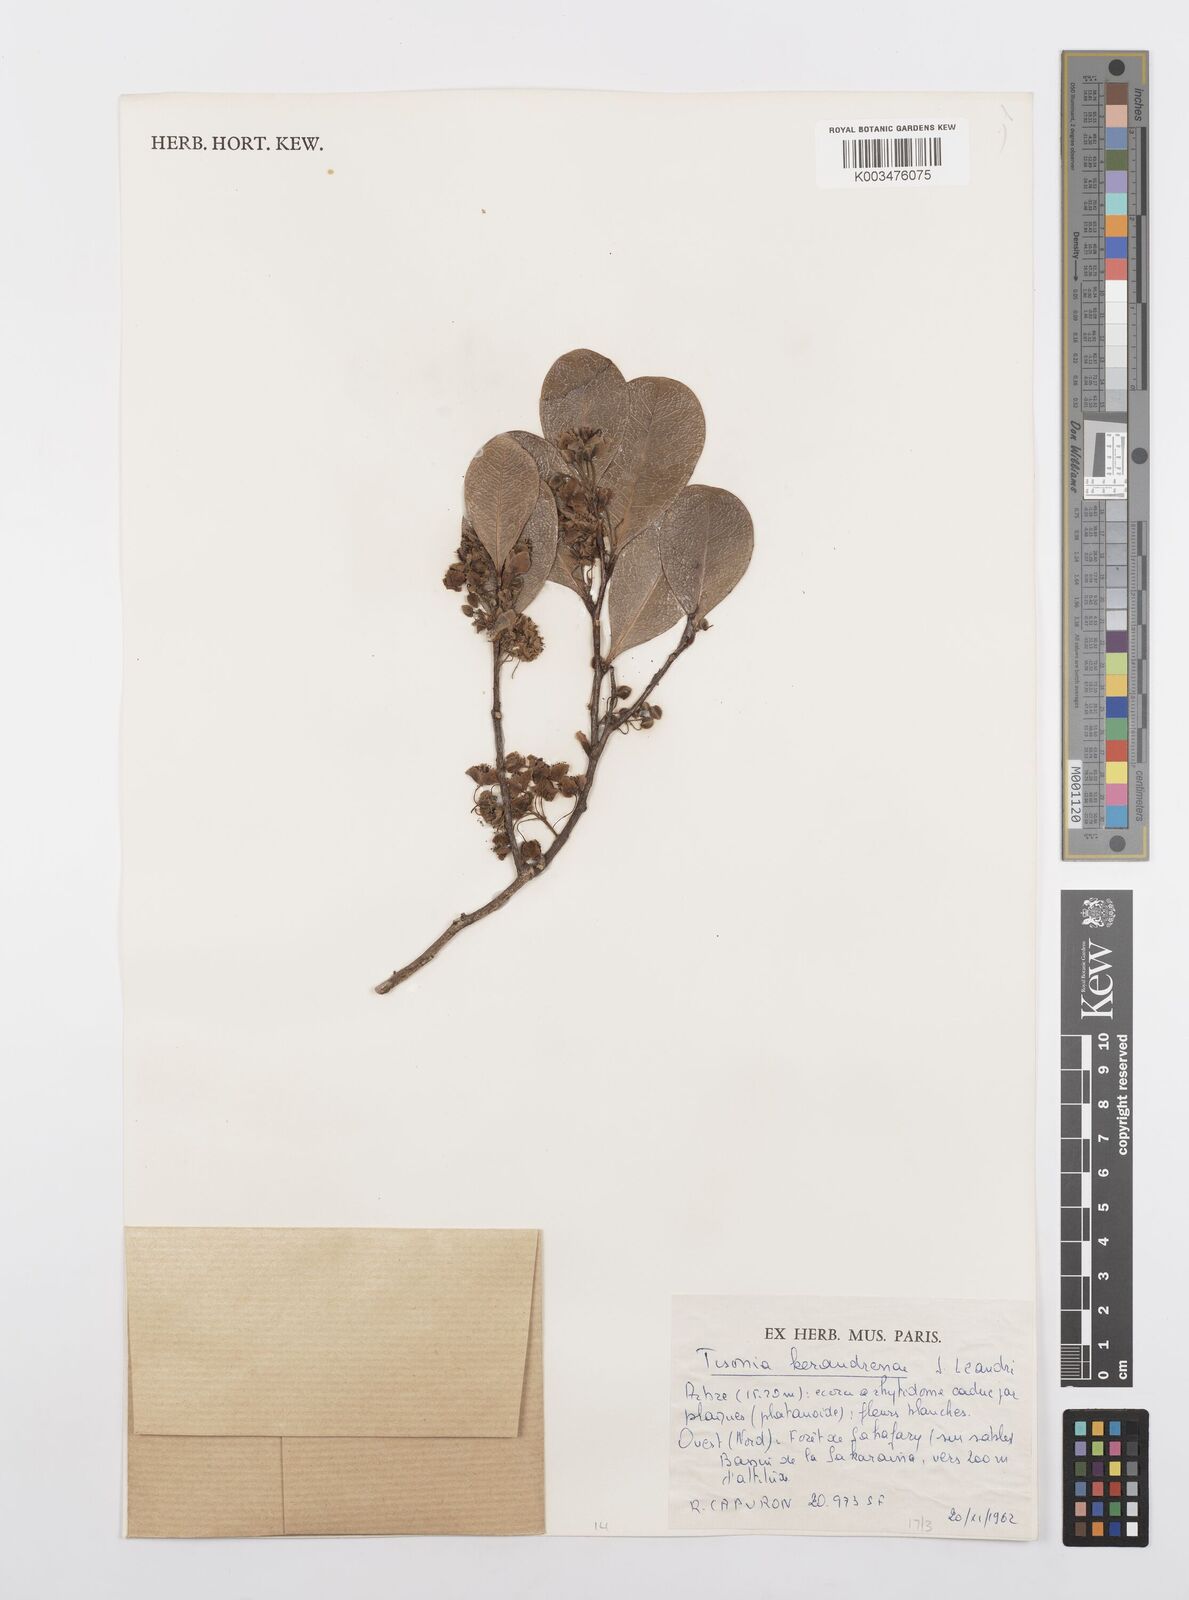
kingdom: Plantae
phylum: Tracheophyta
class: Magnoliopsida
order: Malpighiales
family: Salicaceae
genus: Tisonia
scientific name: Tisonia keraudrenae
